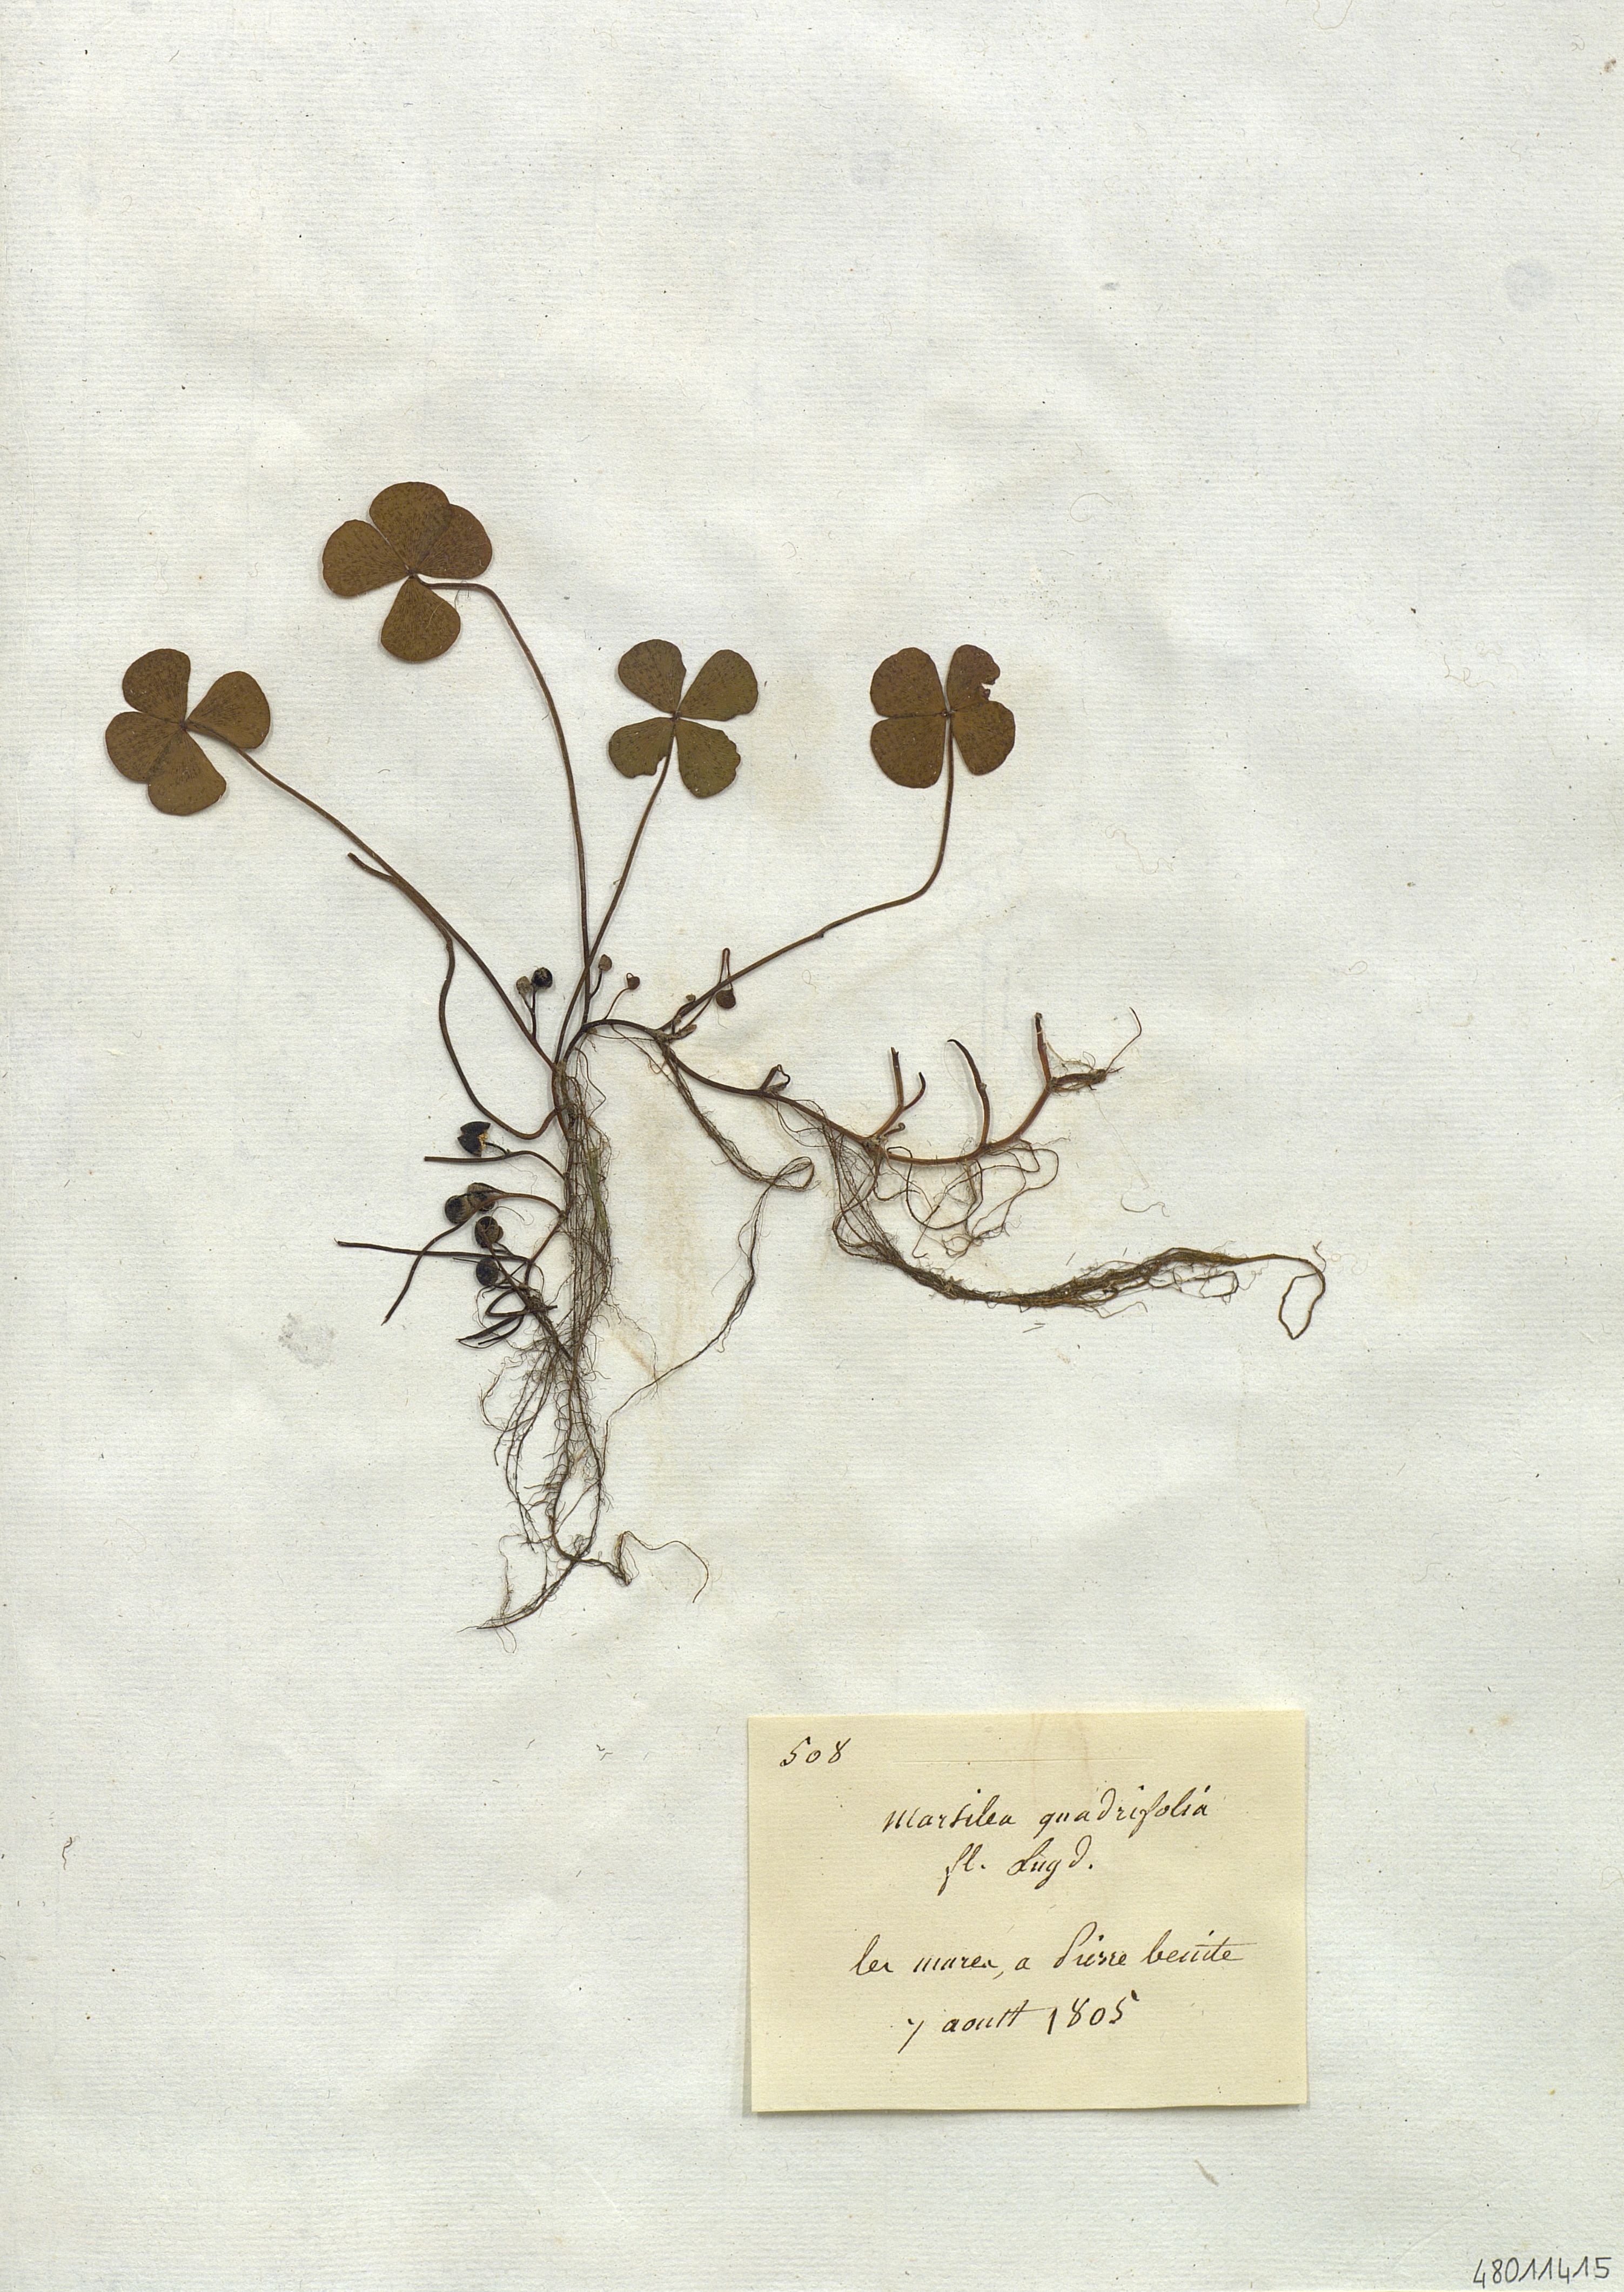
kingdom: Plantae
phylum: Tracheophyta
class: Polypodiopsida
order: Salviniales
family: Marsileaceae
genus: Marsilea
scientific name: Marsilea quadrifolia
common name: Water shamrock
